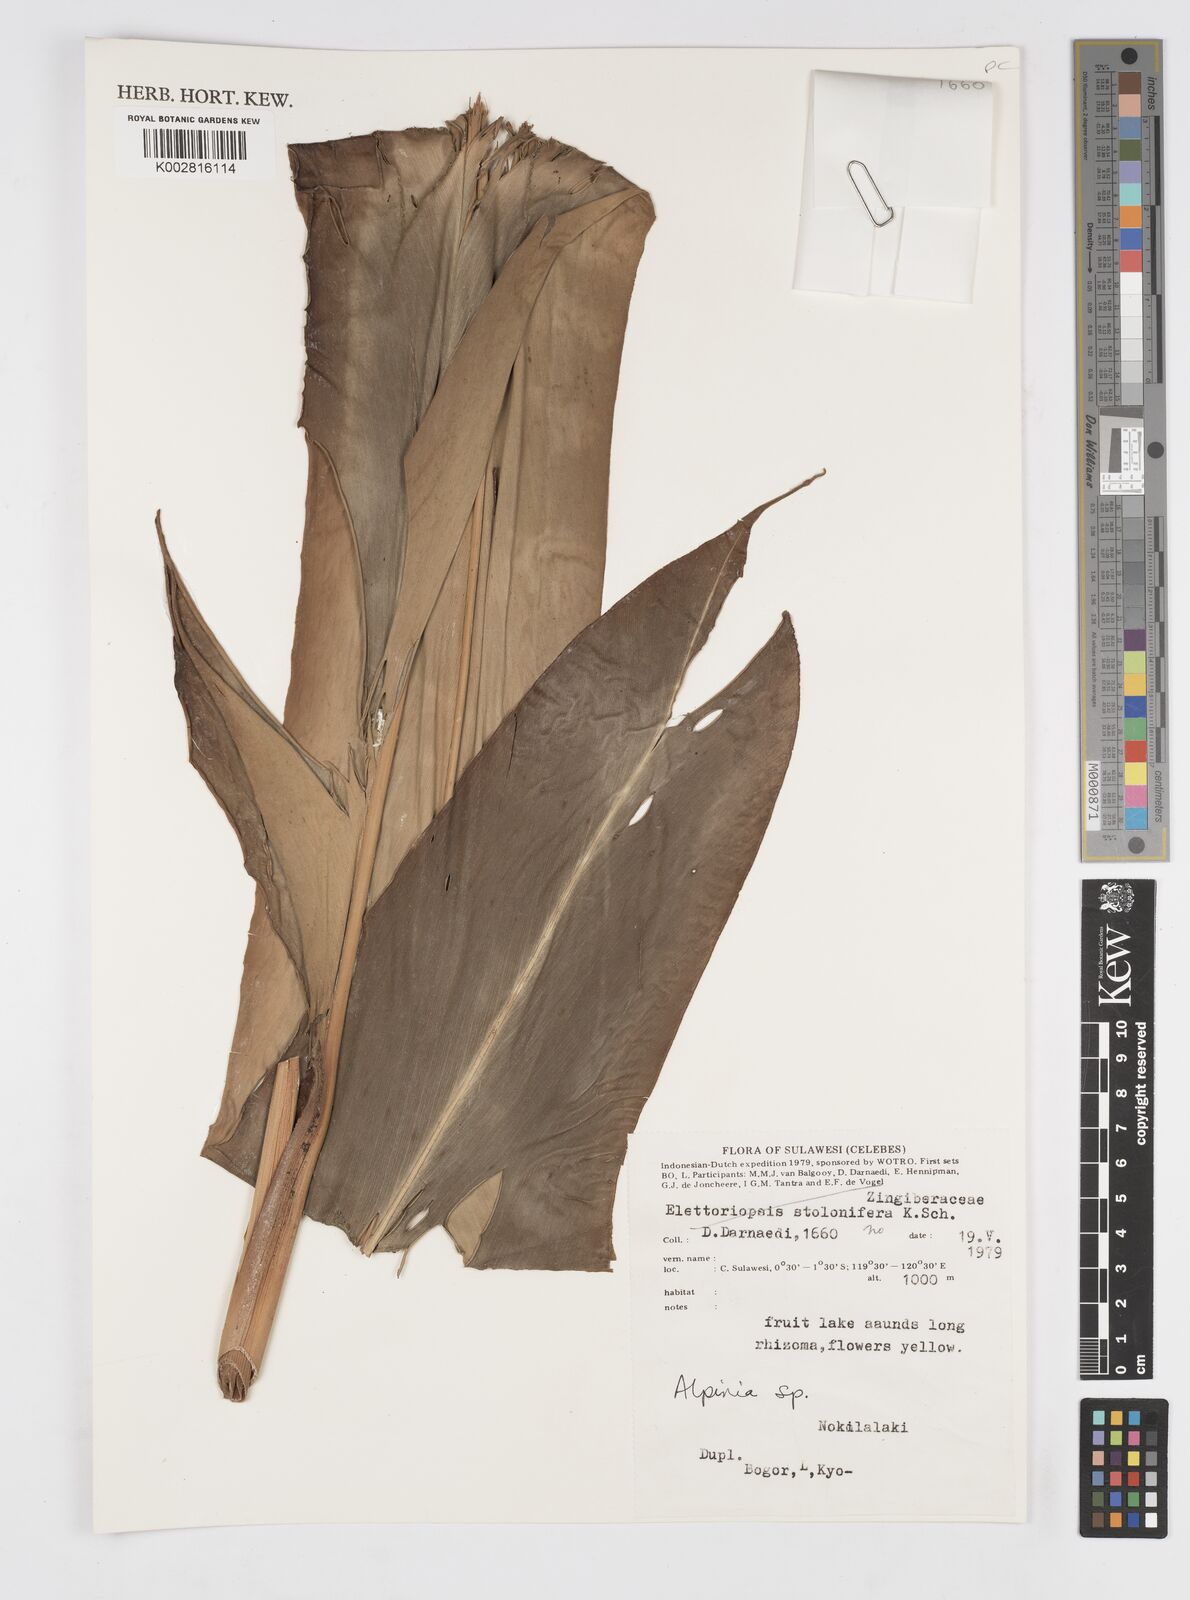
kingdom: Plantae
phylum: Tracheophyta
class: Liliopsida
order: Zingiberales
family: Zingiberaceae
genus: Alpinia
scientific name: Alpinia
